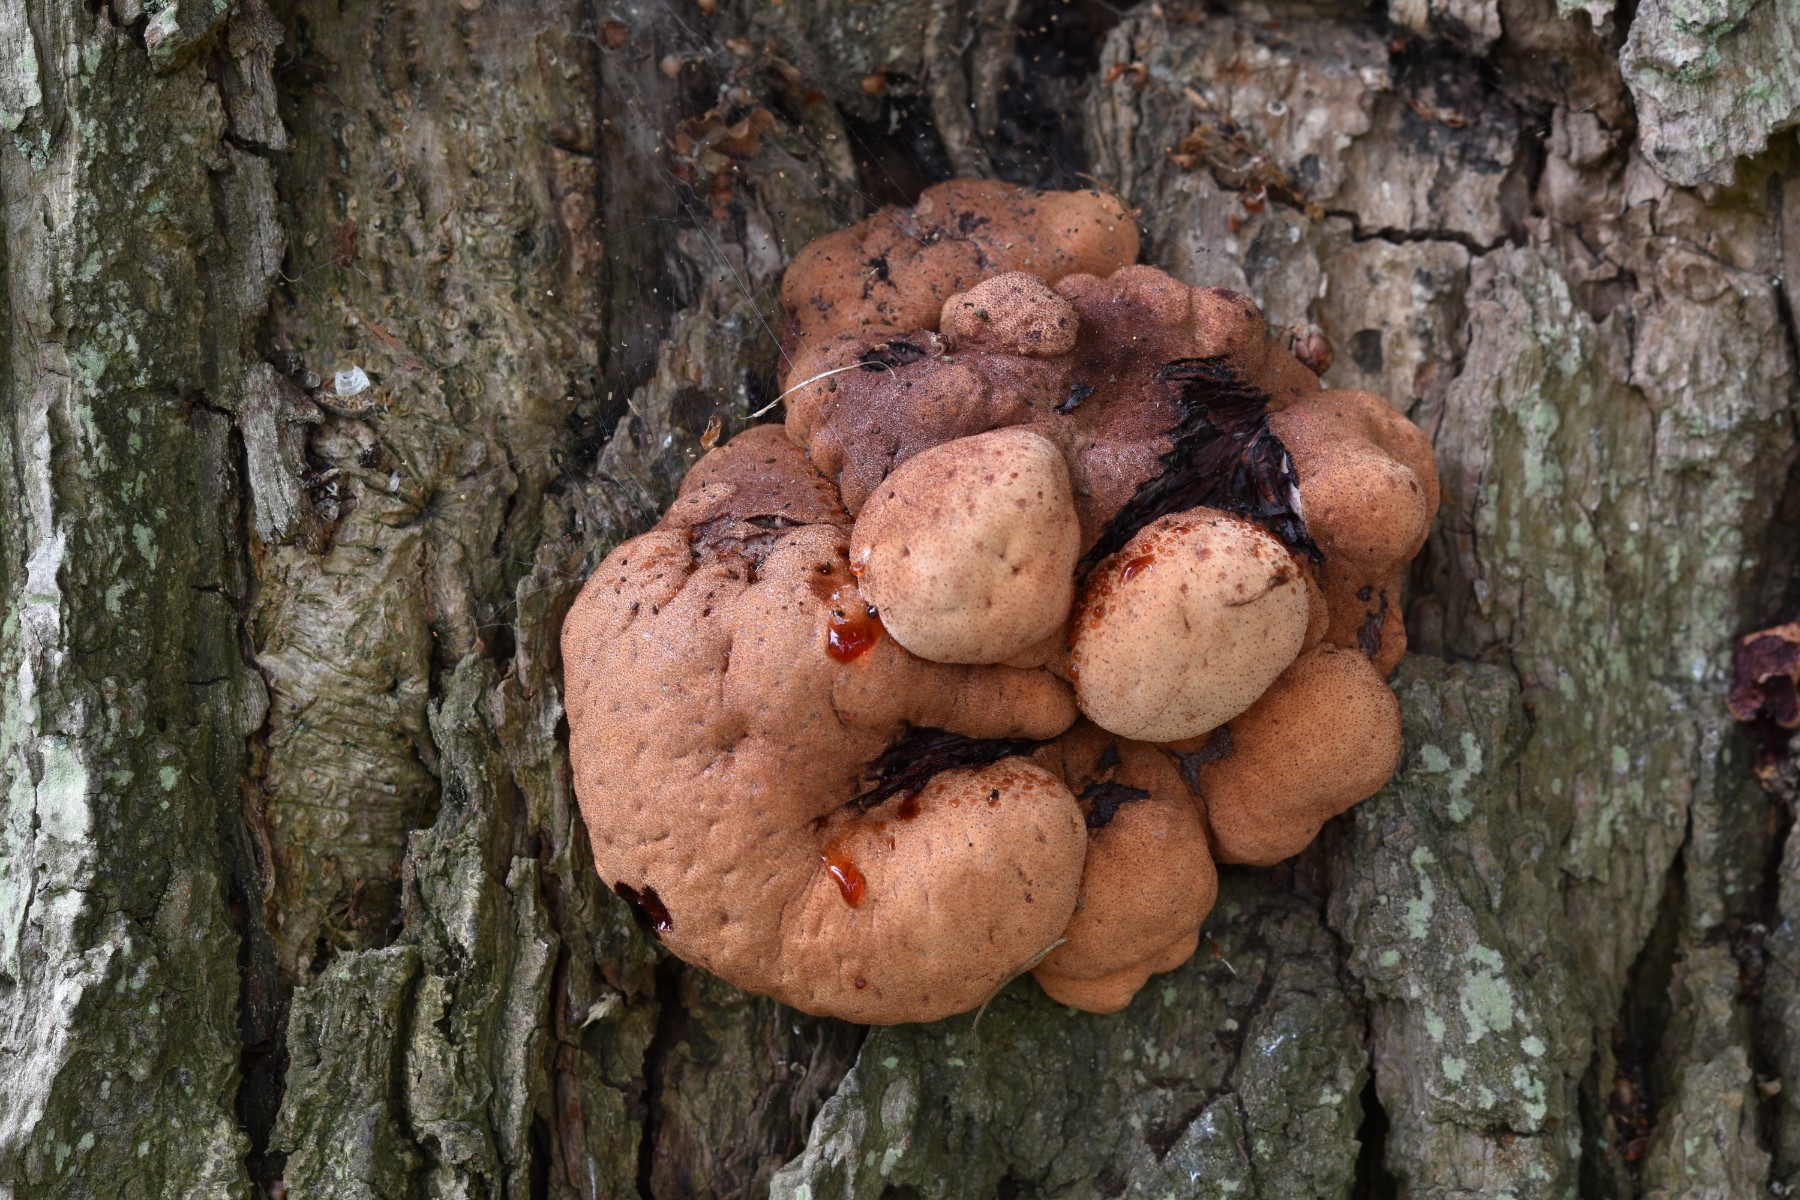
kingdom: Fungi
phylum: Basidiomycota
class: Agaricomycetes
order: Agaricales
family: Fistulinaceae
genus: Fistulina
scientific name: Fistulina hepatica
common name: oksetunge
